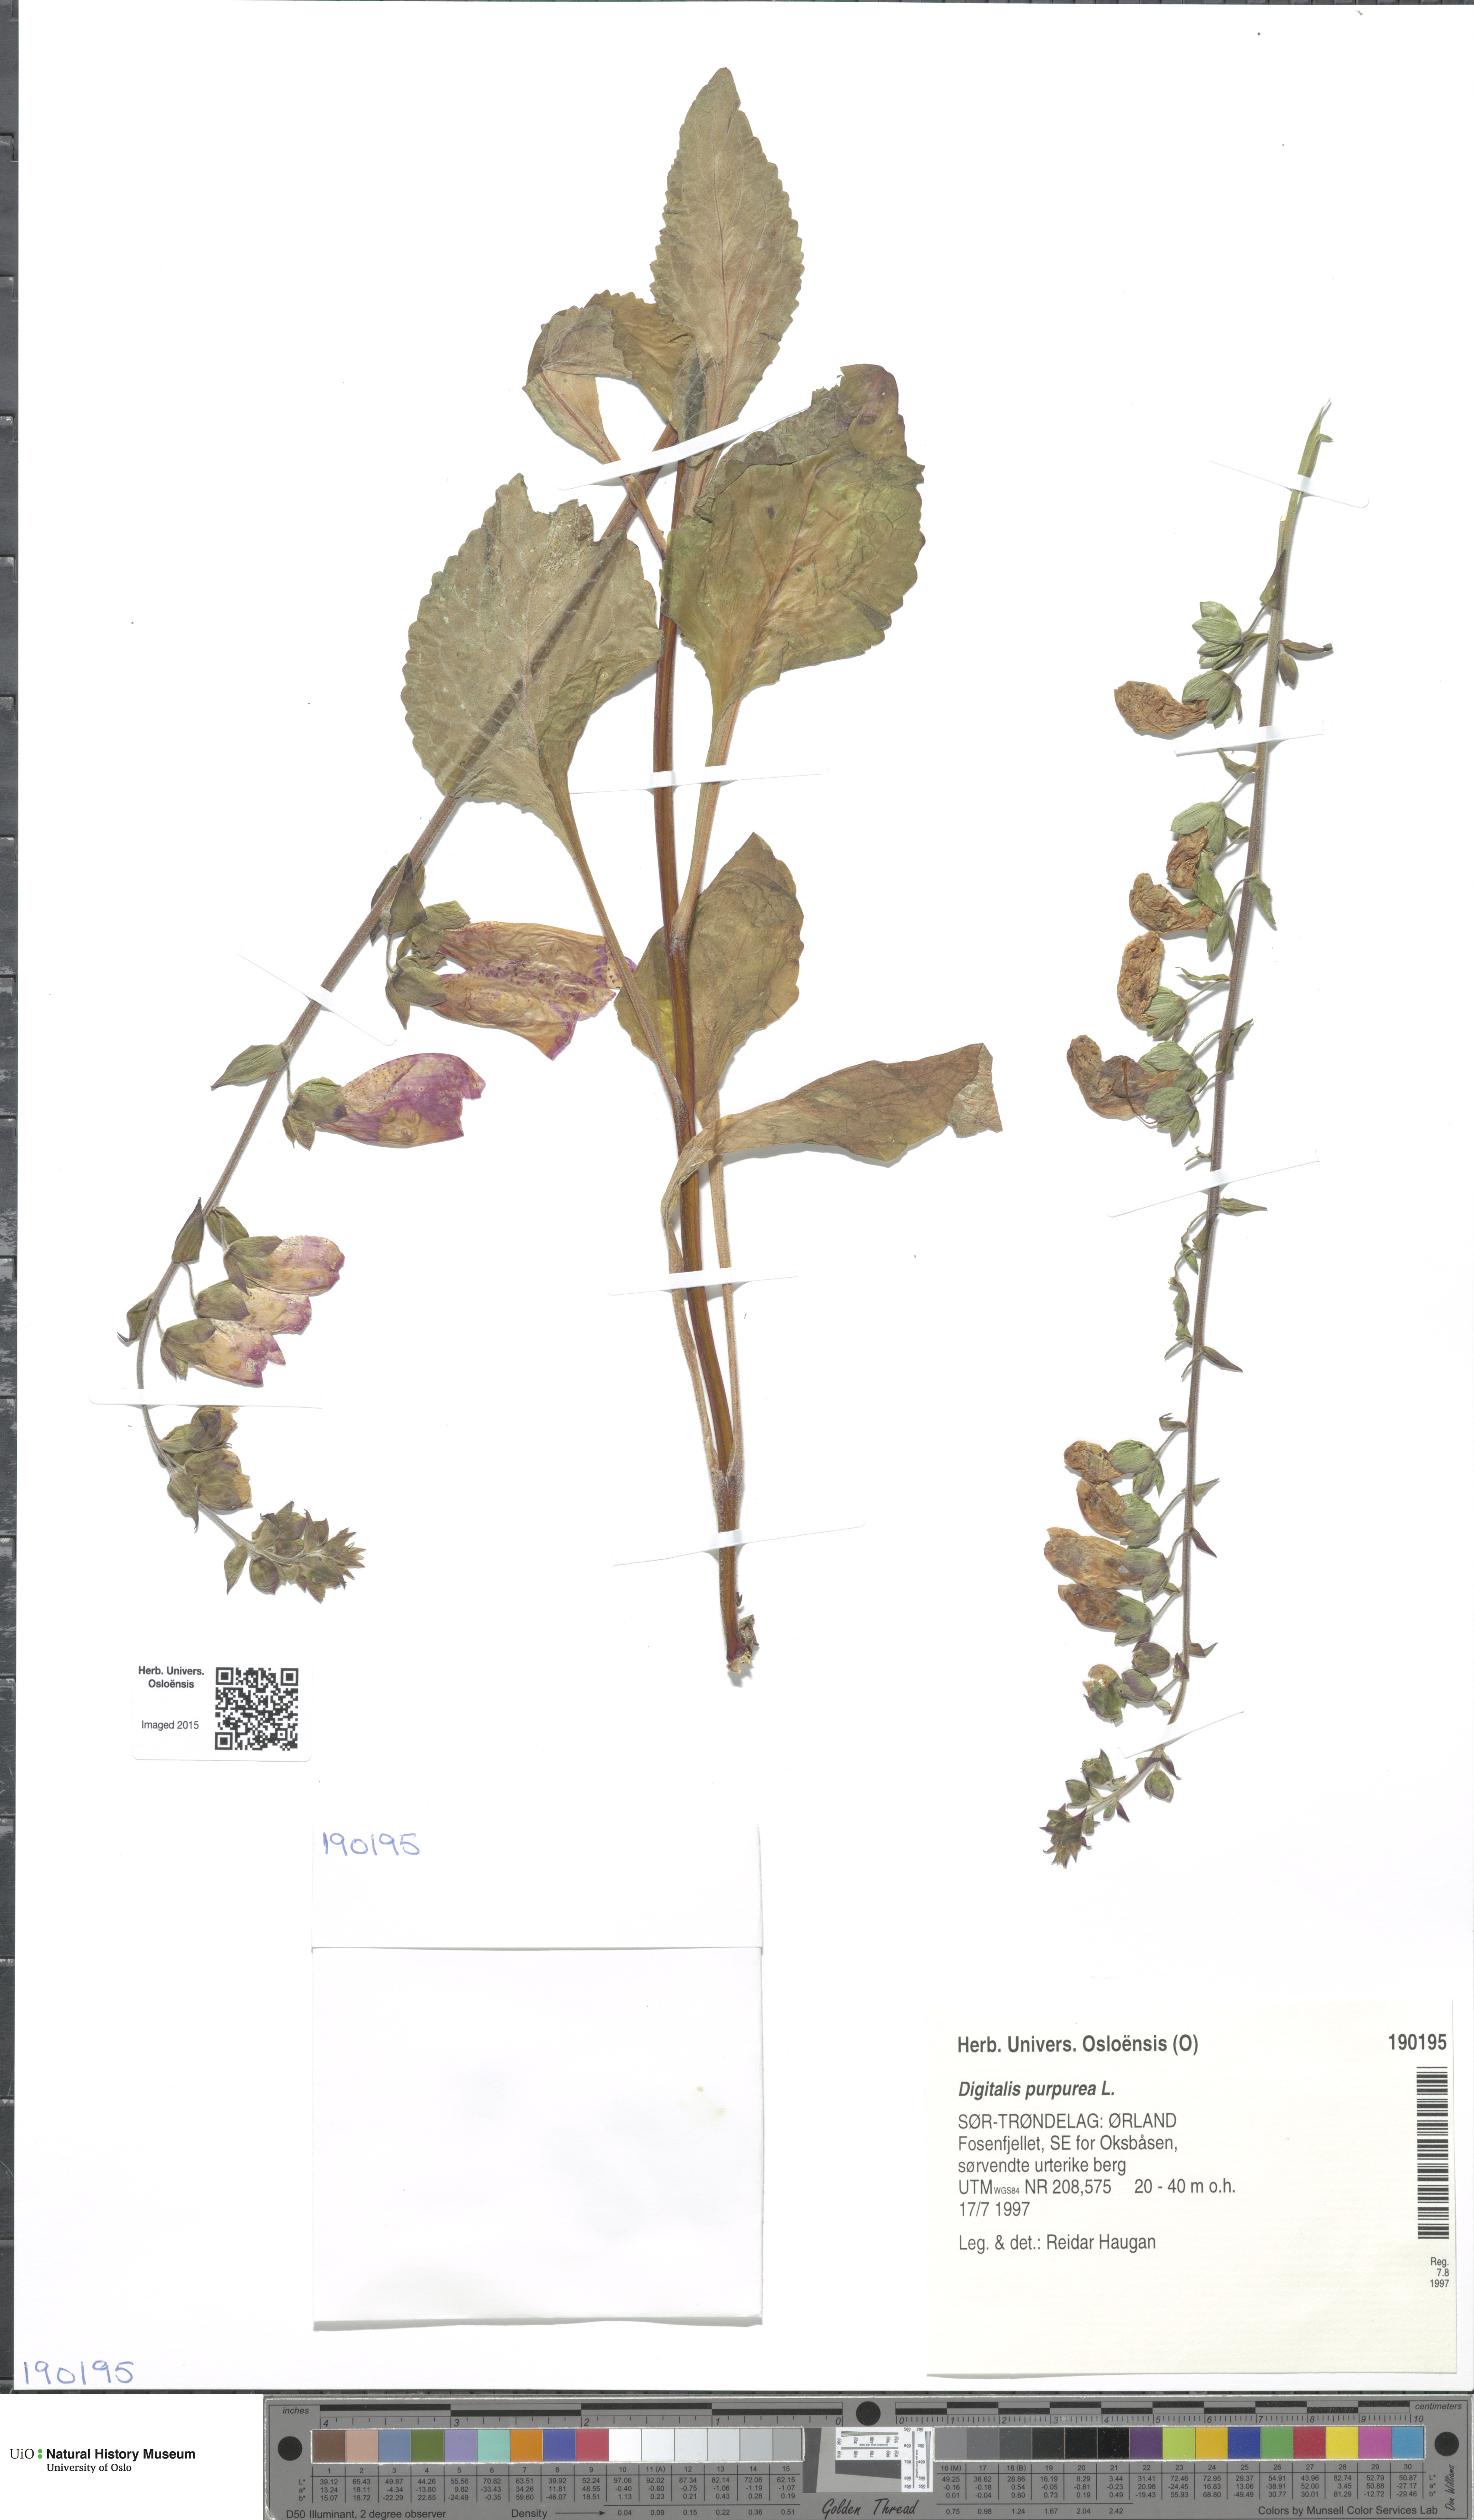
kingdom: Plantae
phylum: Tracheophyta
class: Magnoliopsida
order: Lamiales
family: Plantaginaceae
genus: Digitalis
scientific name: Digitalis purpurea
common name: Foxglove
